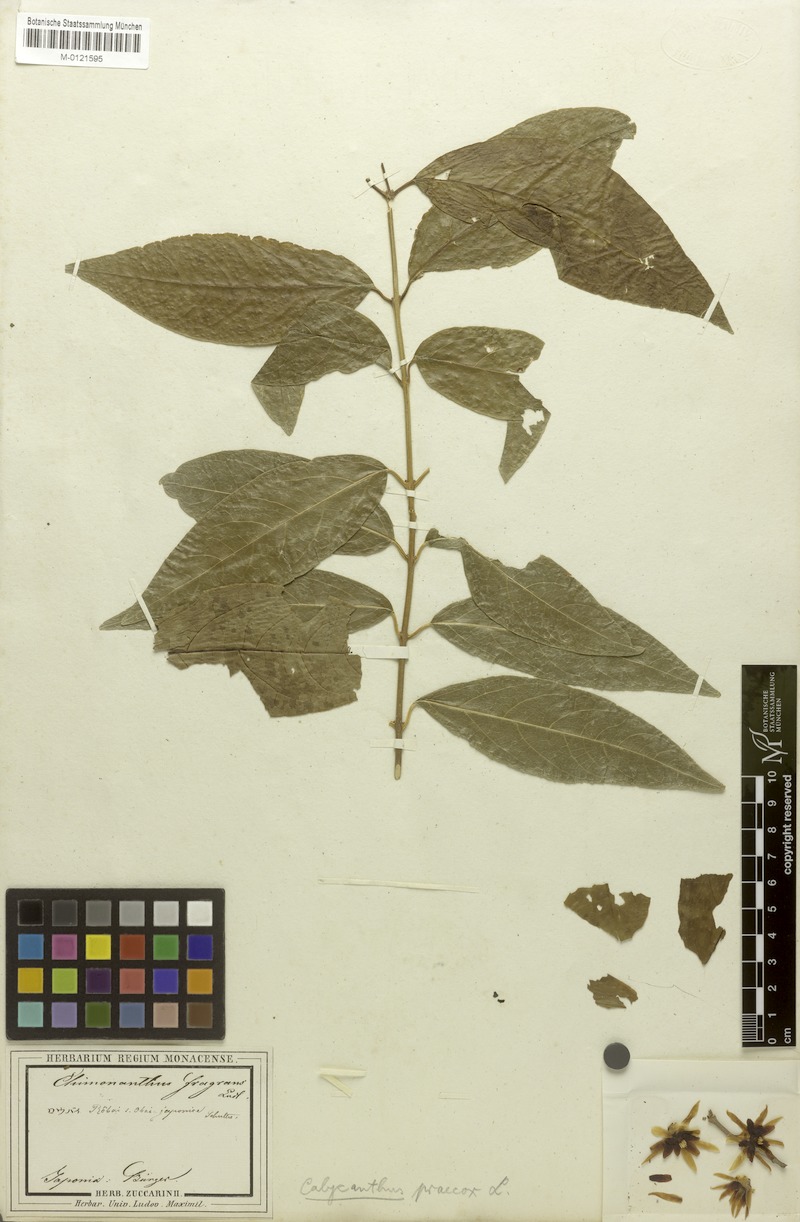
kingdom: Plantae
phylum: Tracheophyta
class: Magnoliopsida
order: Laurales
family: Calycanthaceae
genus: Chimonanthus
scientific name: Chimonanthus praecox
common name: Wintersweet
